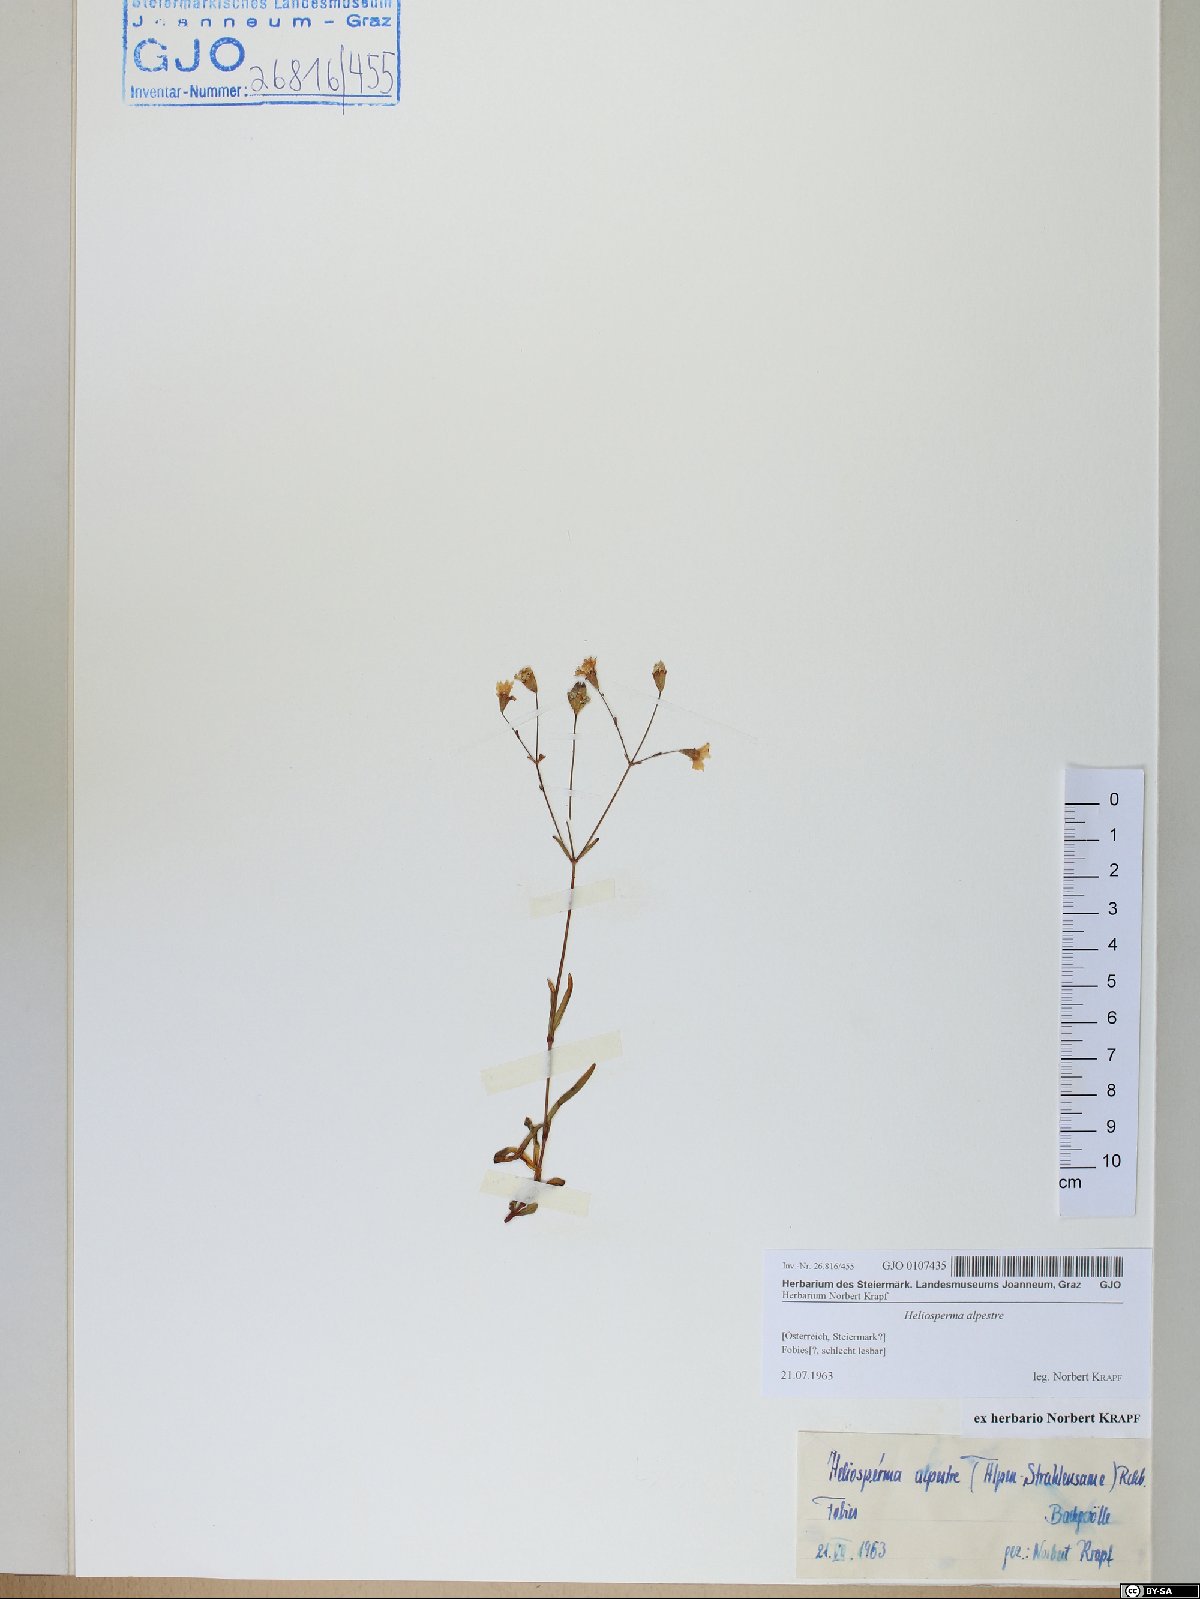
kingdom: Plantae
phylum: Tracheophyta
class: Magnoliopsida
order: Caryophyllales
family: Caryophyllaceae
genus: Heliosperma
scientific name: Heliosperma alpestre
